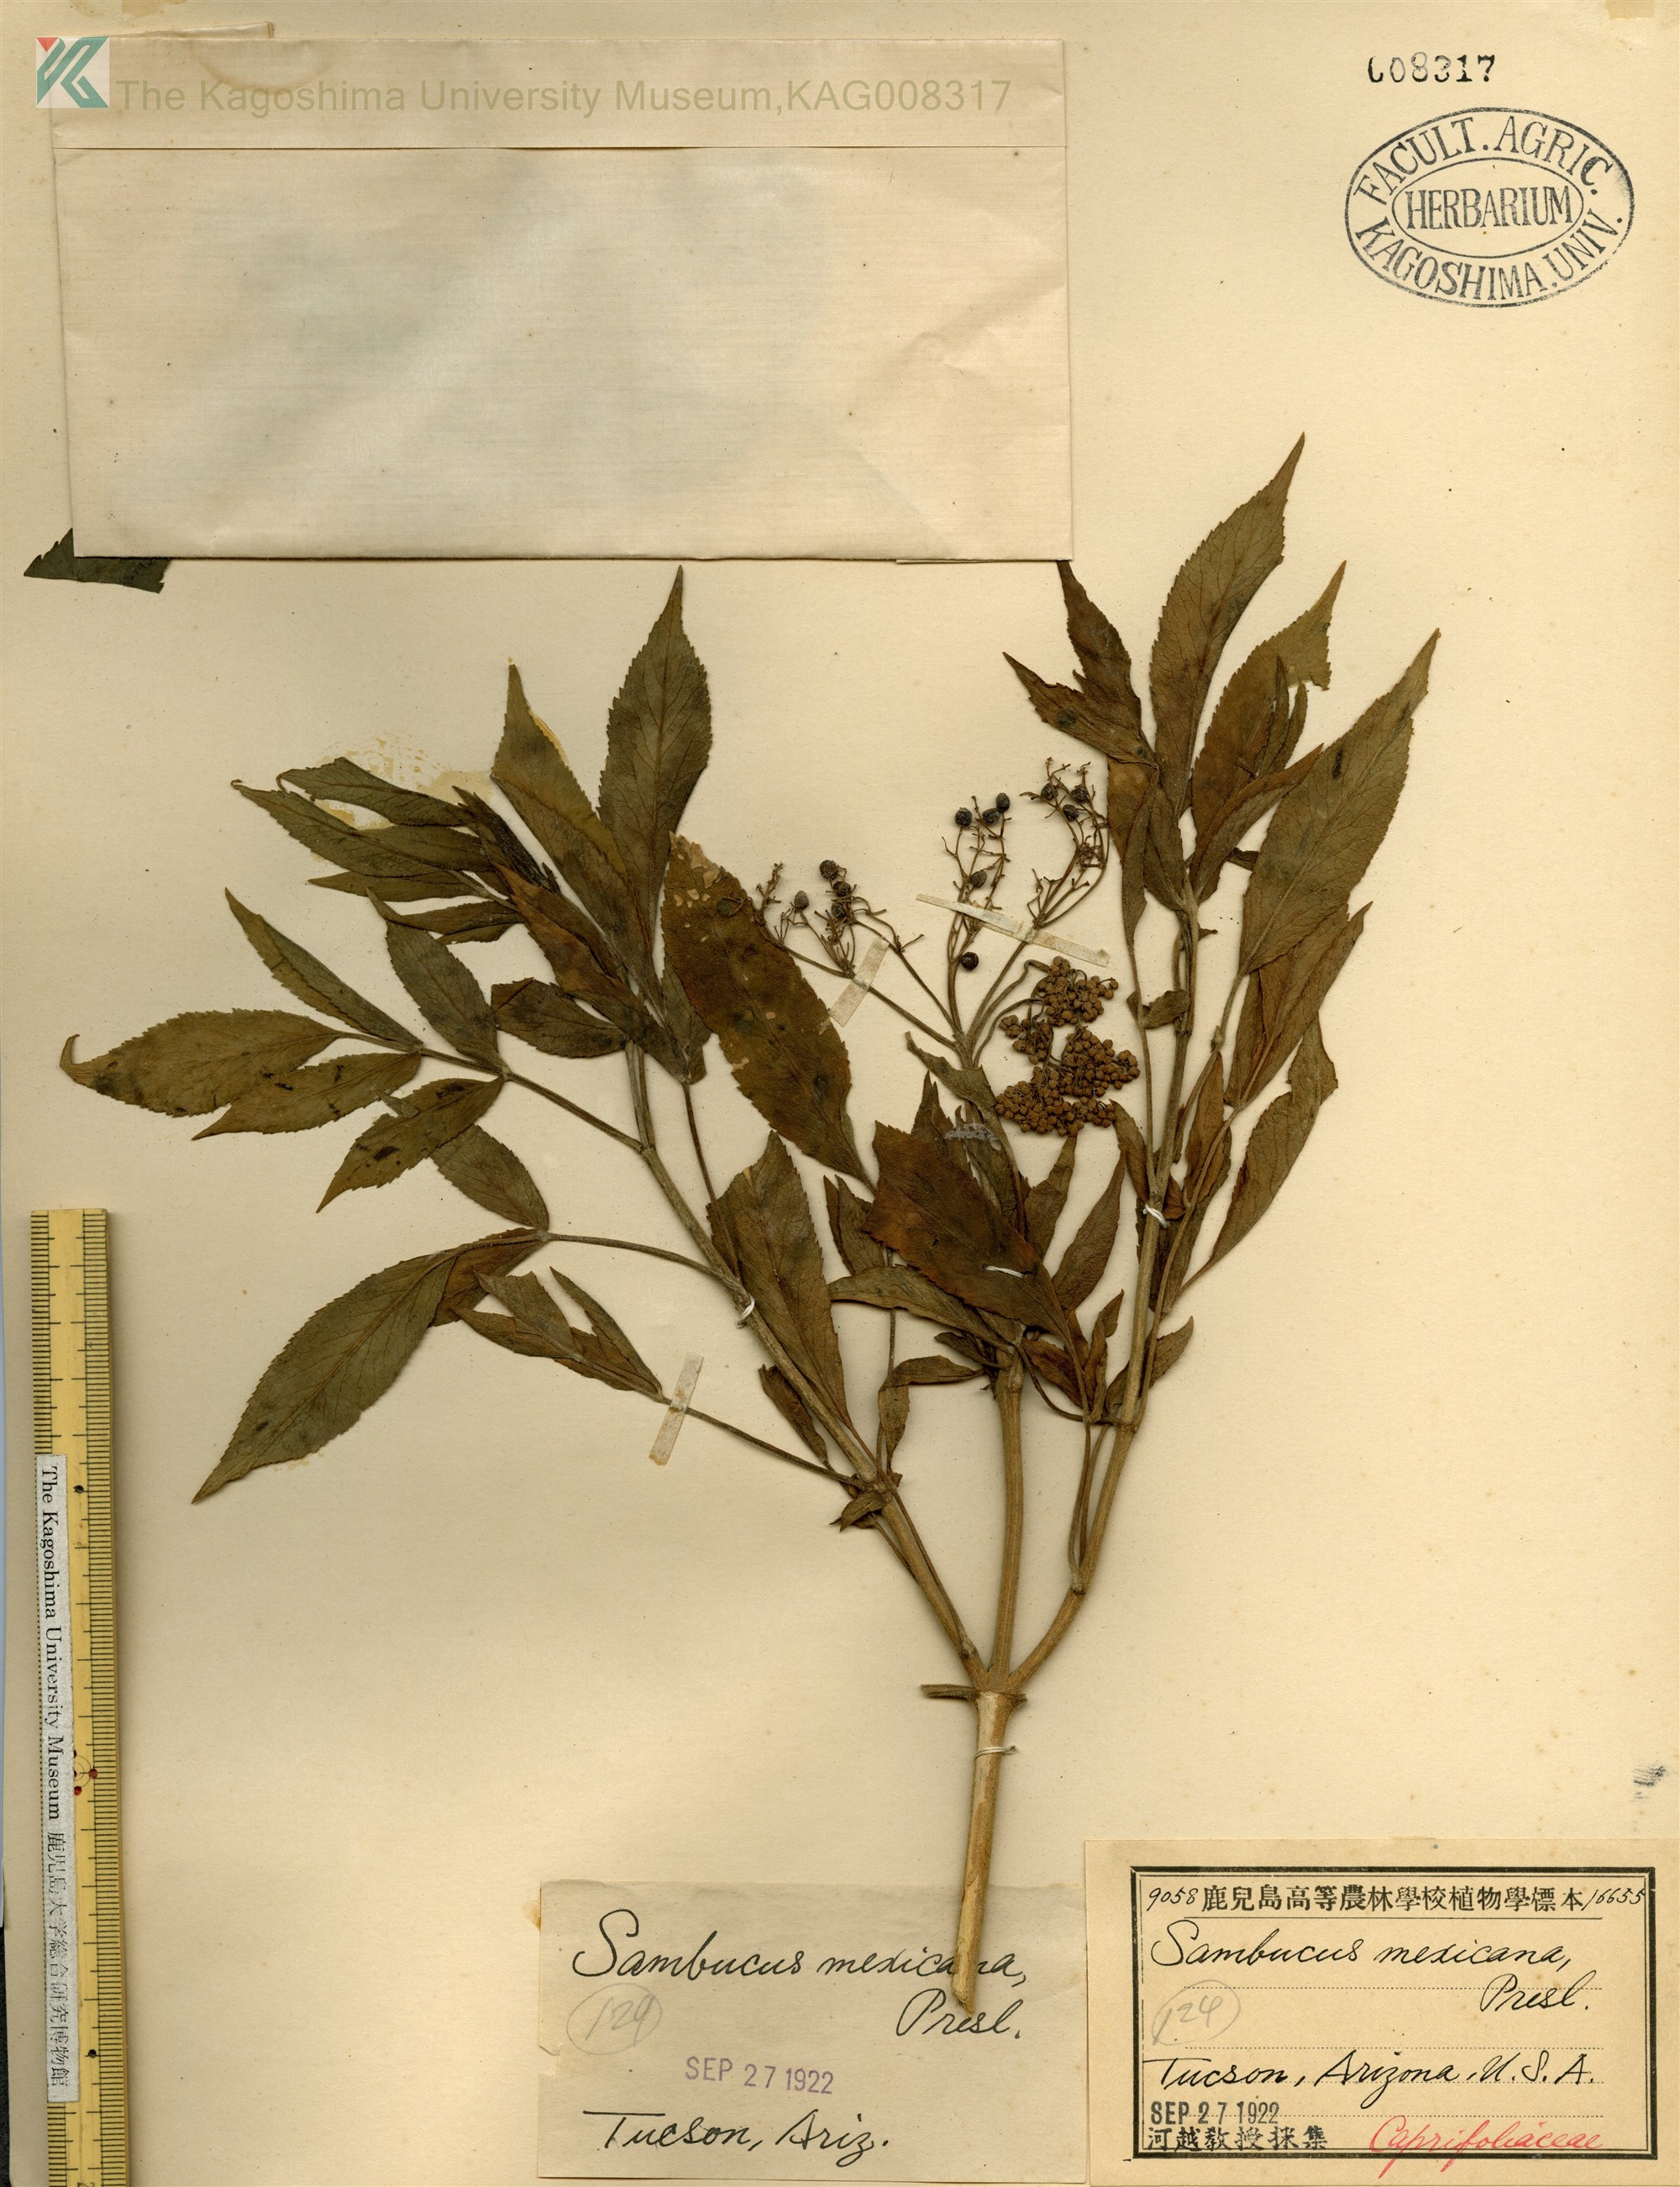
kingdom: Plantae
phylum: Tracheophyta
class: Magnoliopsida
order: Dipsacales
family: Viburnaceae
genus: Sambucus
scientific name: Sambucus nigra
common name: Elder
